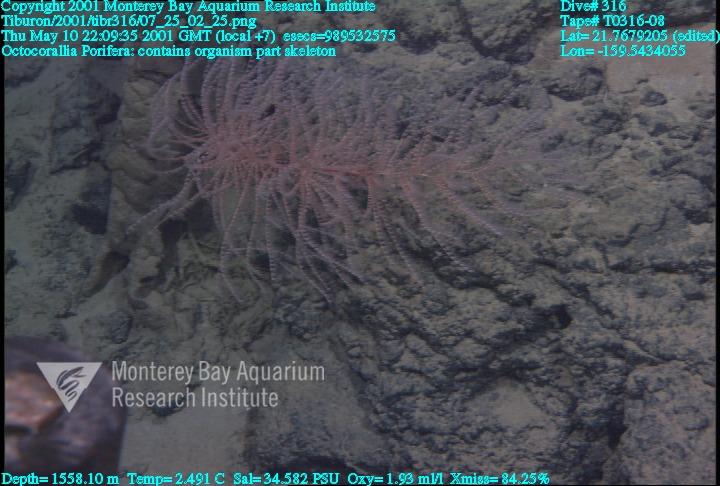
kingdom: Animalia
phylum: Porifera
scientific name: Porifera
